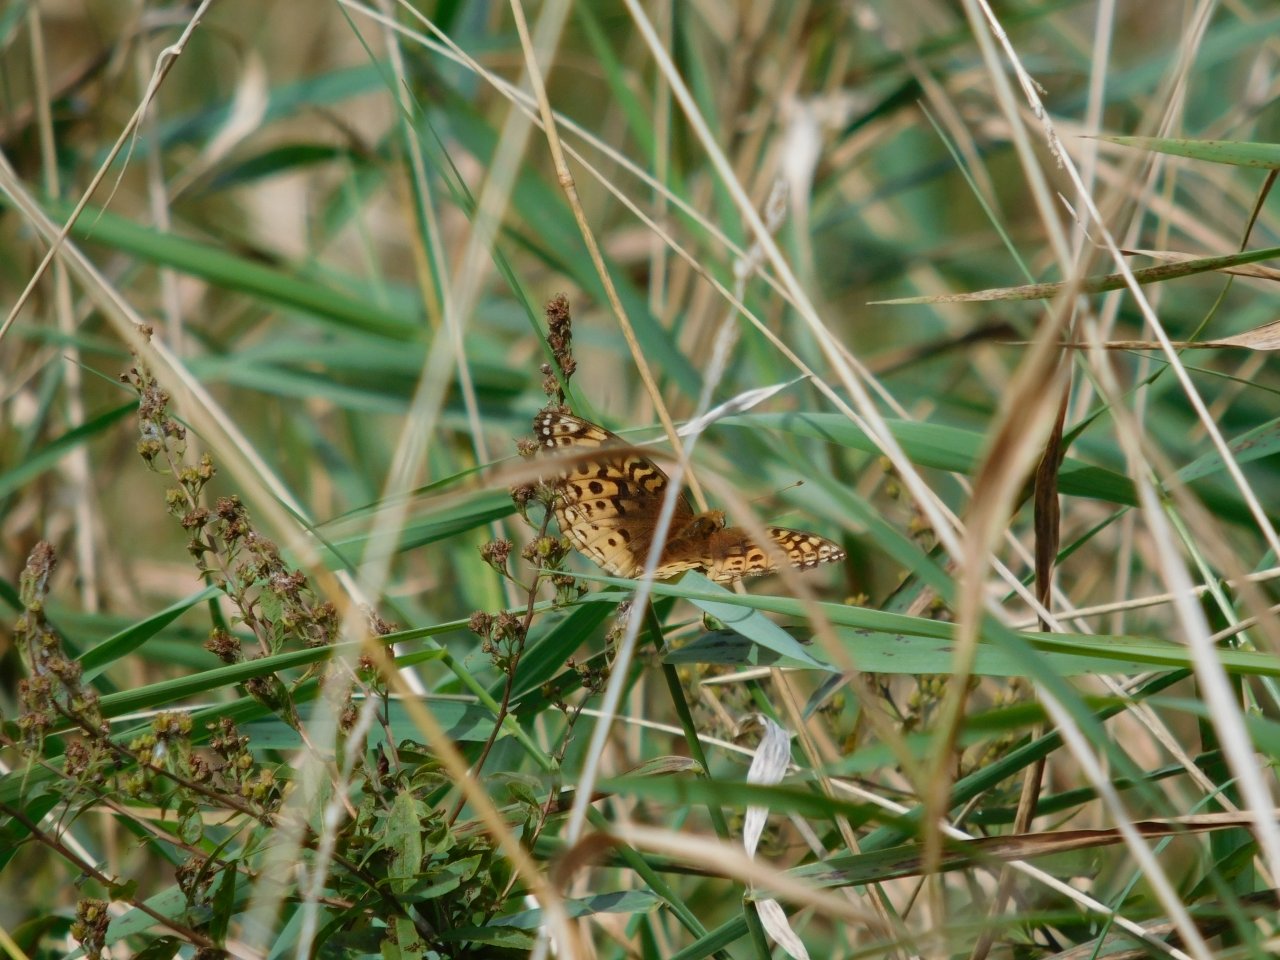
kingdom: Animalia
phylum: Arthropoda
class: Insecta
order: Lepidoptera
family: Nymphalidae
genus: Speyeria
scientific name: Speyeria cybele
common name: Great Spangled Fritillary
